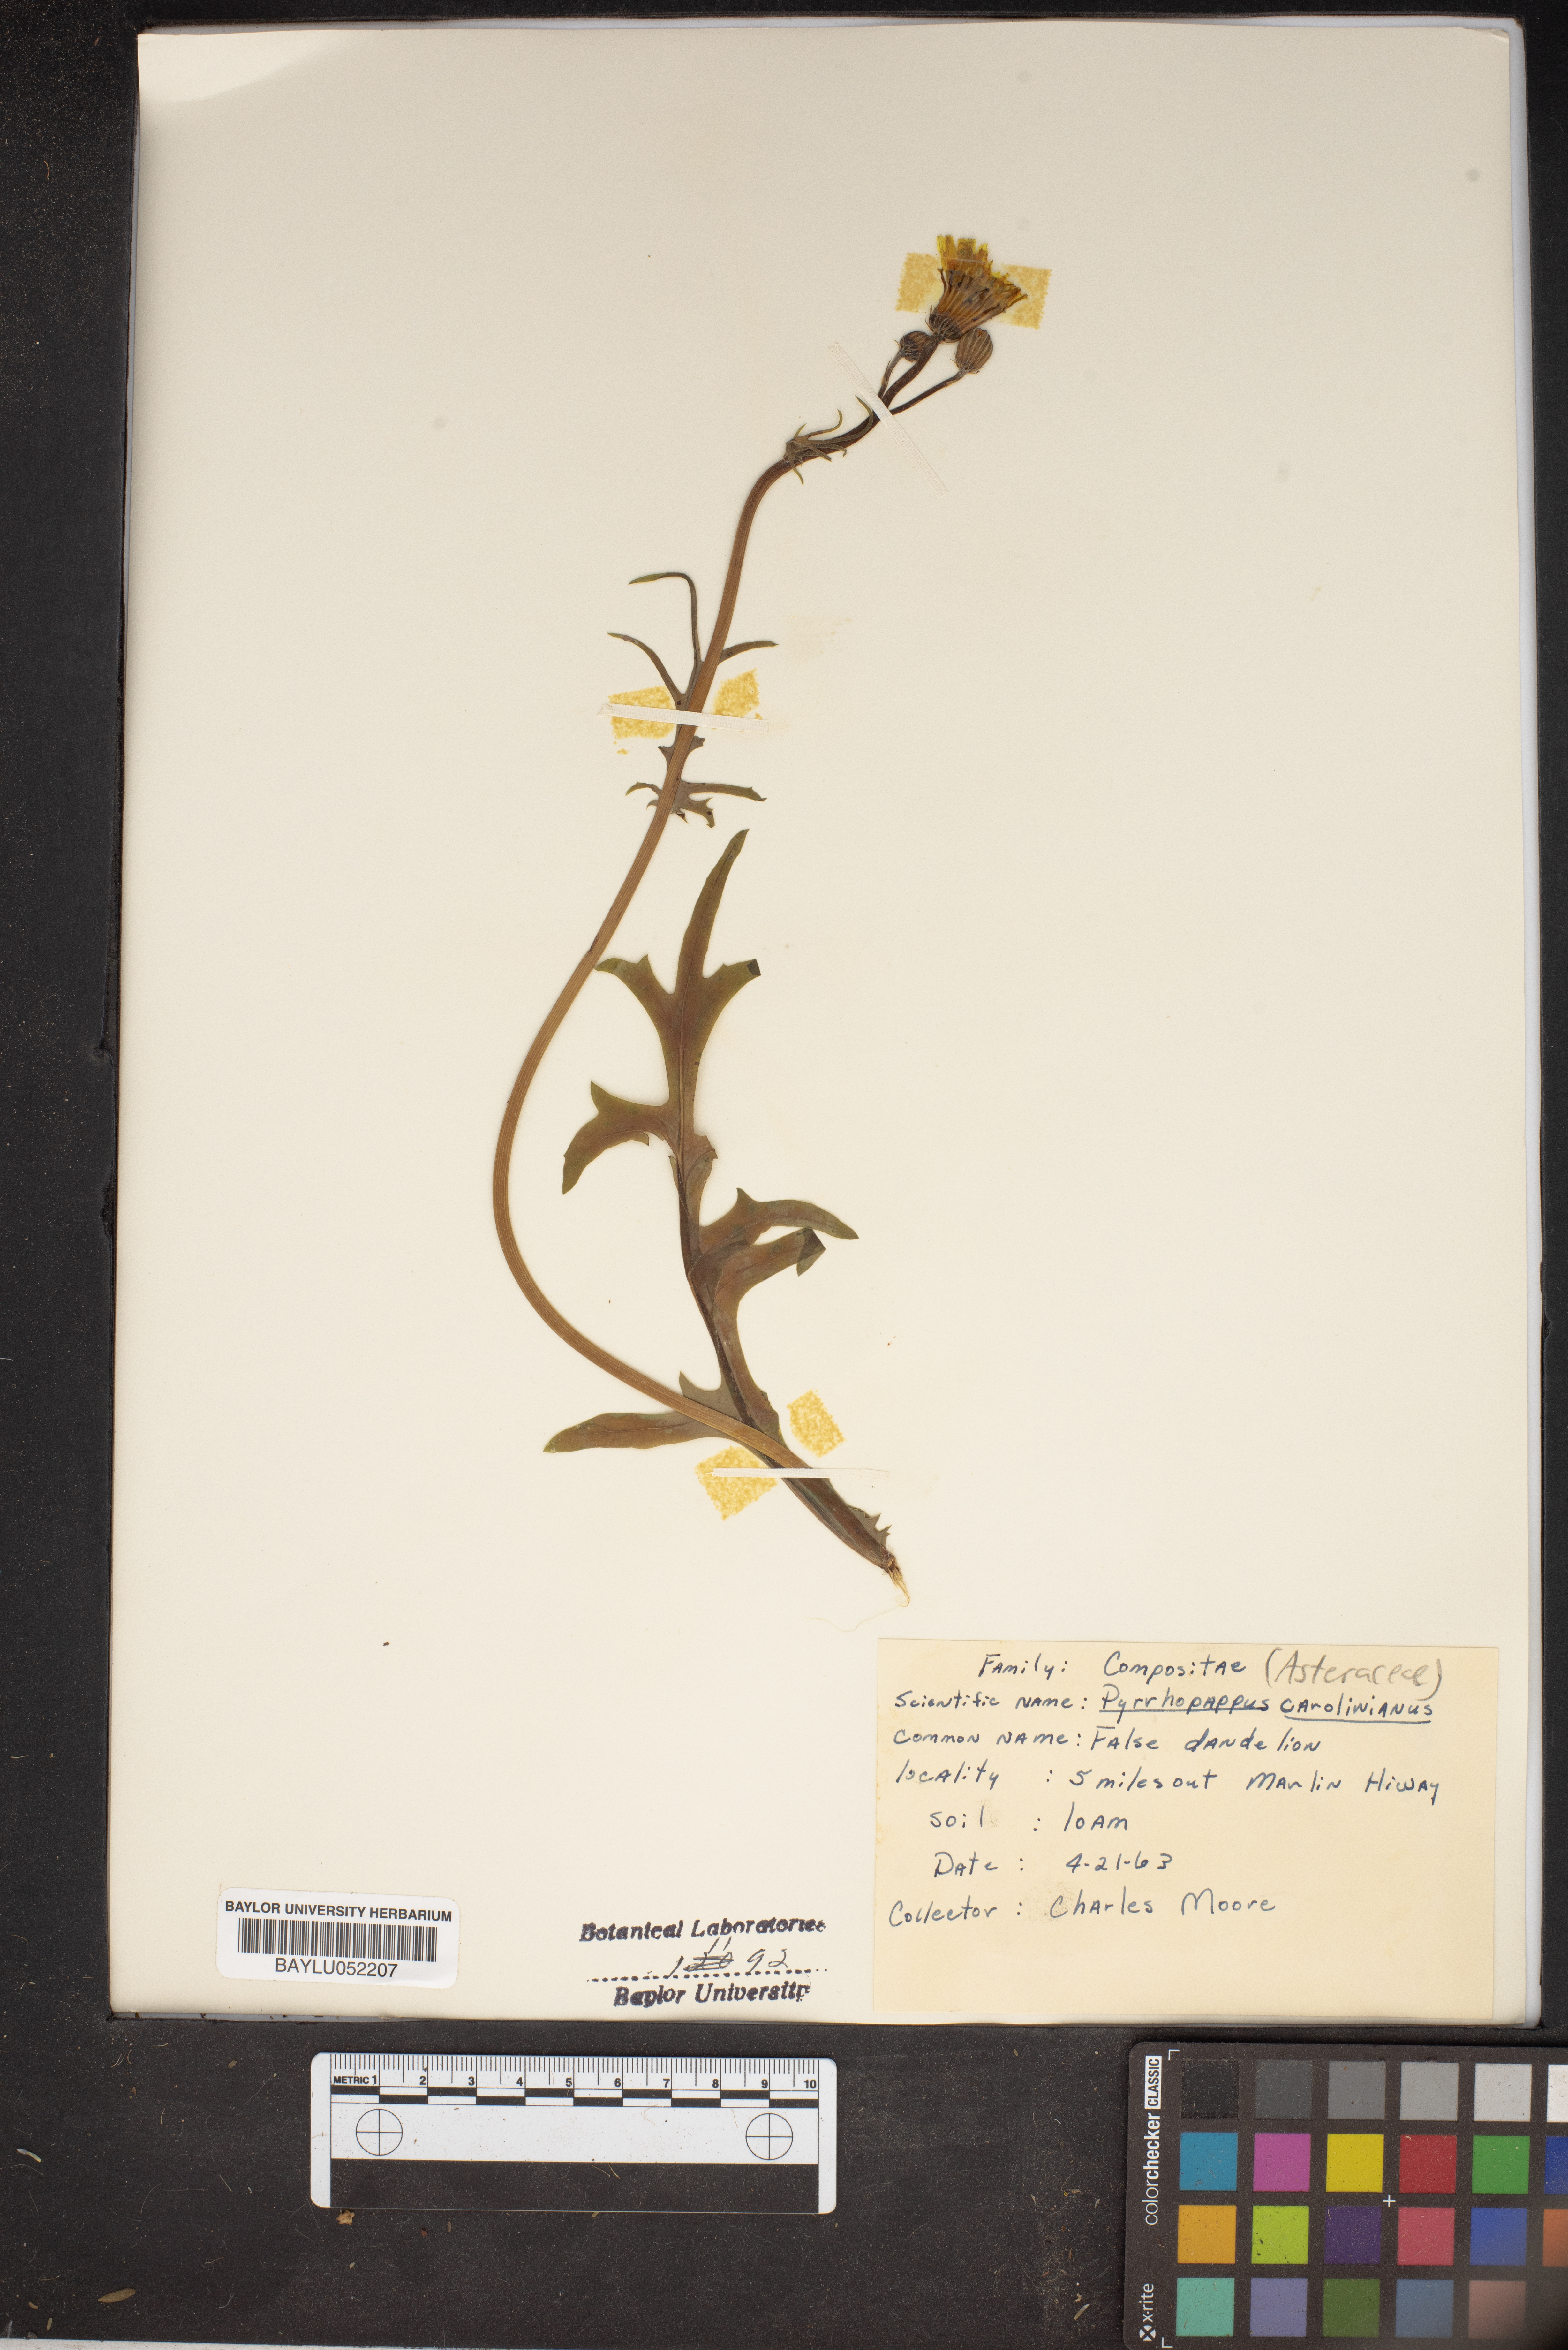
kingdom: Plantae
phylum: Tracheophyta
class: Magnoliopsida
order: Asterales
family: Asteraceae
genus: Pyrrhopappus
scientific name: Pyrrhopappus carolinianus
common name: Carolina desert-chicory
